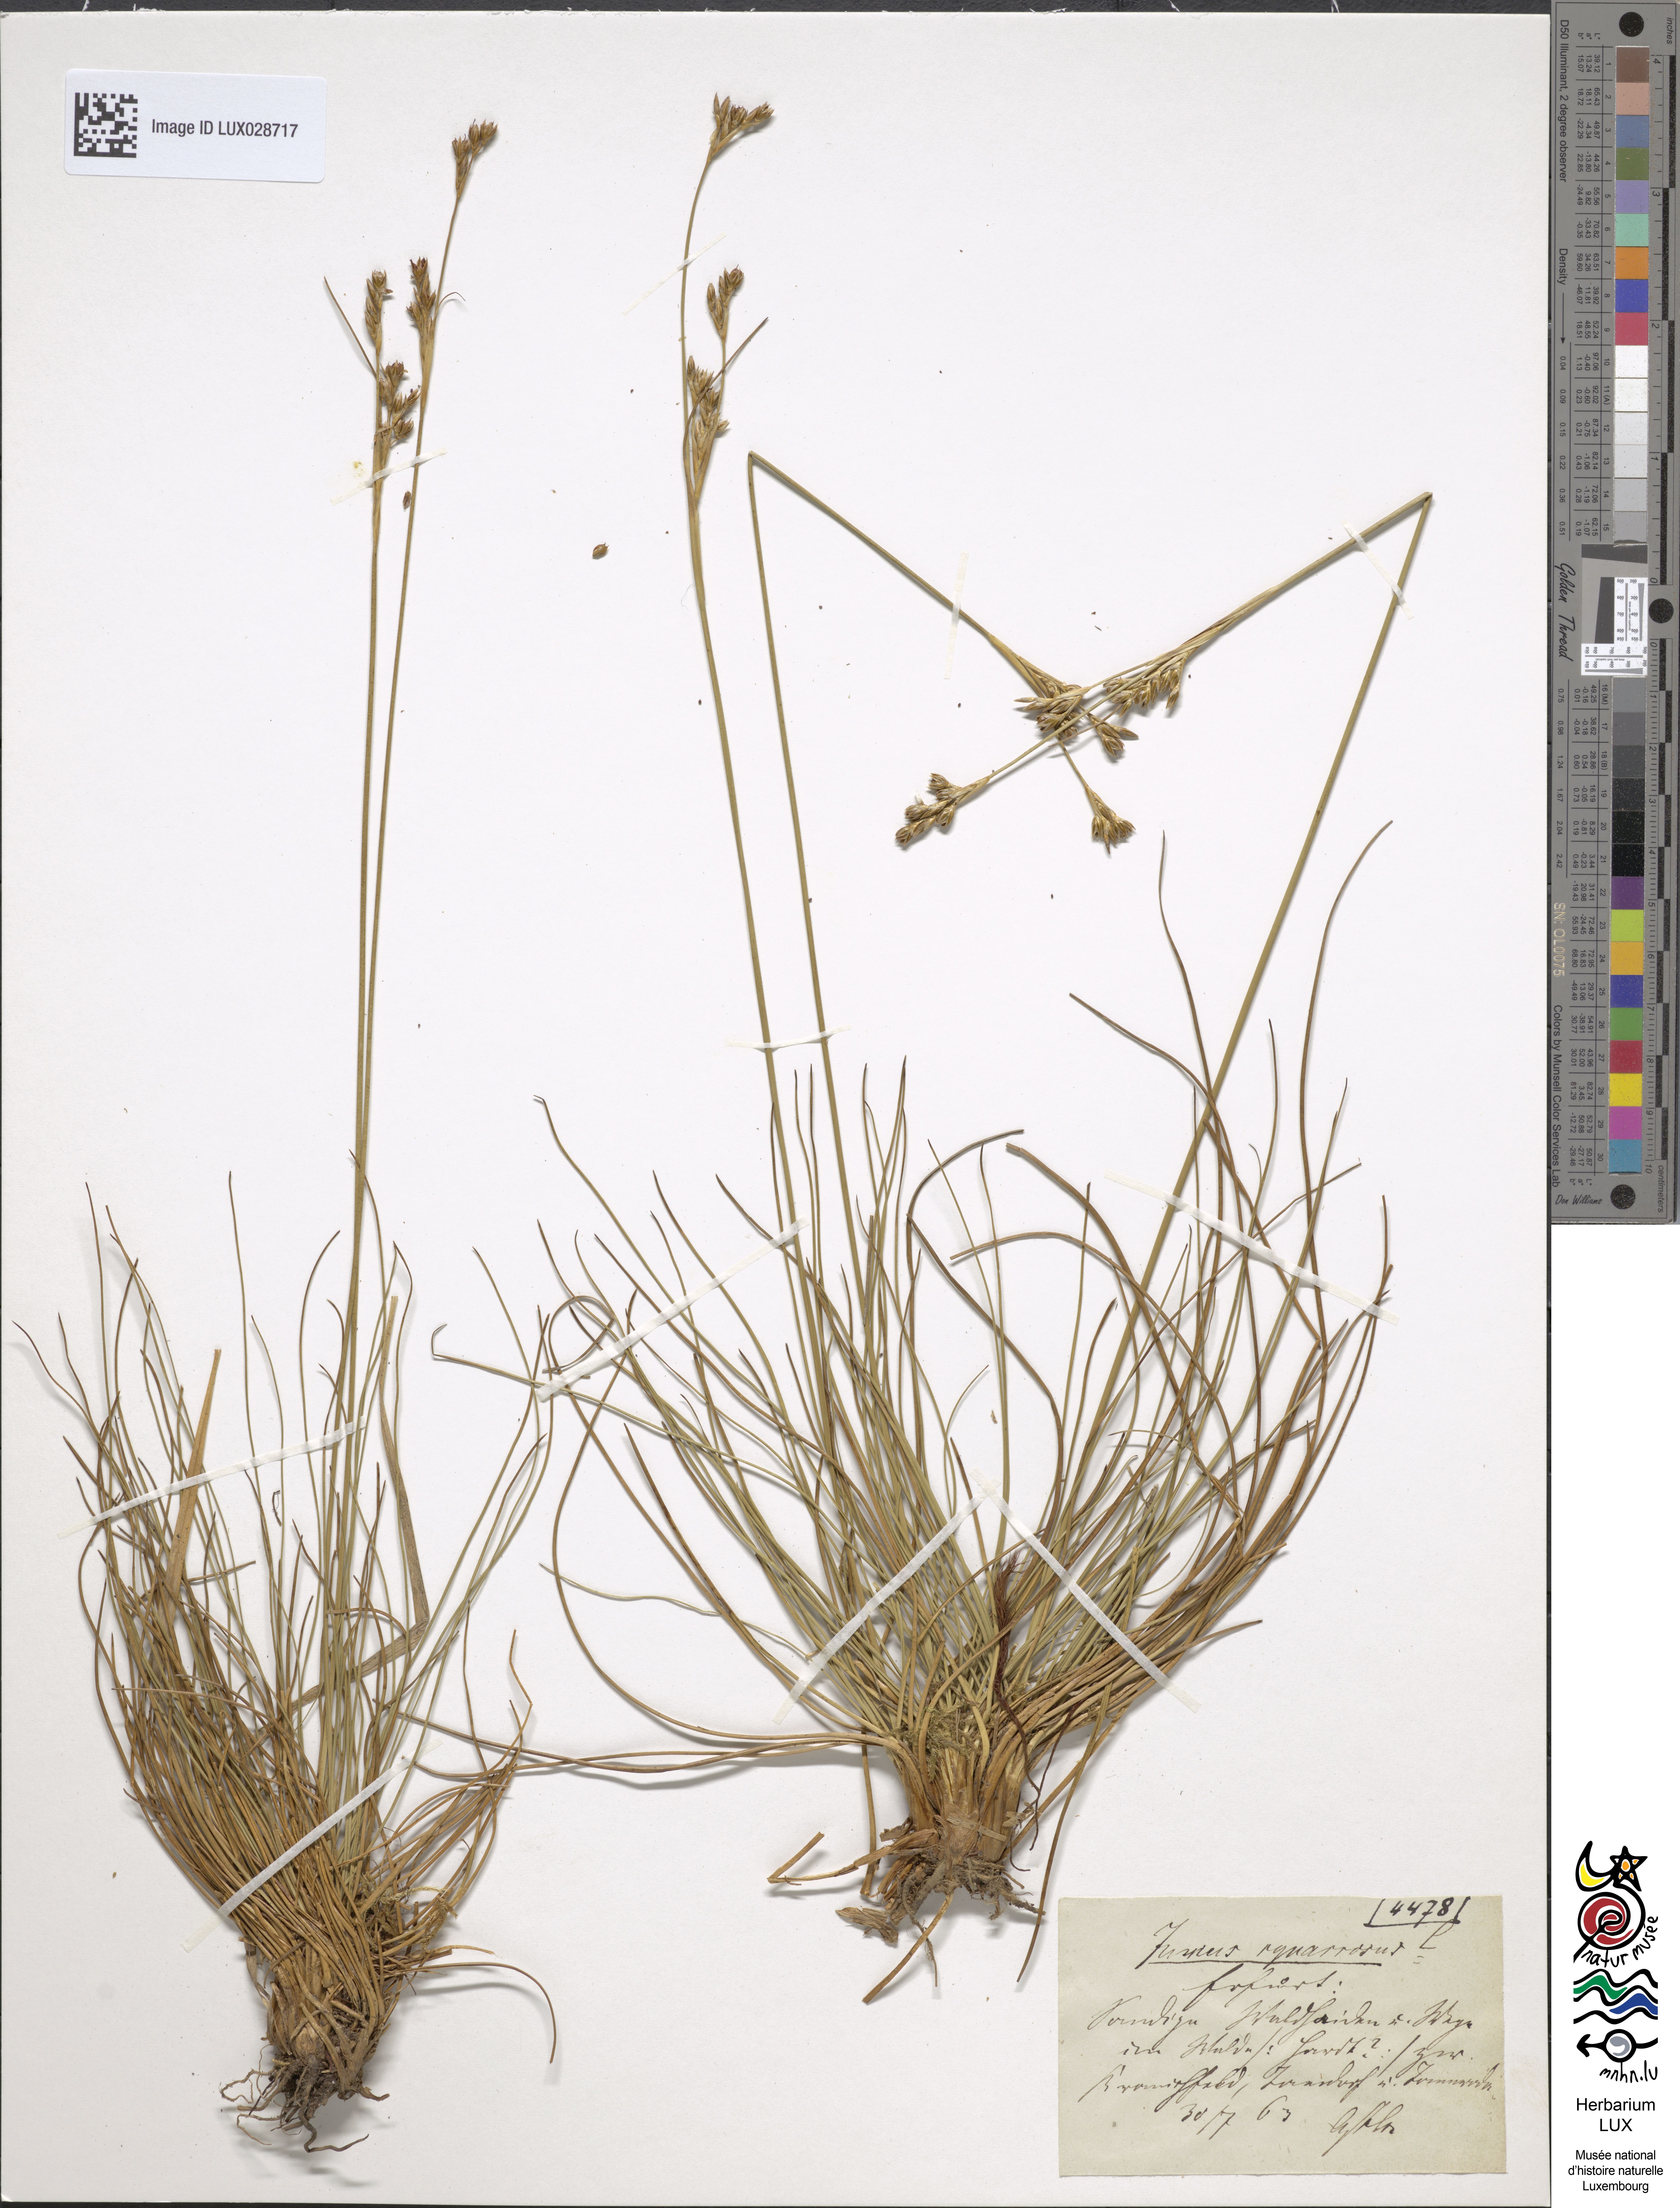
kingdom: Plantae
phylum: Tracheophyta
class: Liliopsida
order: Poales
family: Juncaceae
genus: Juncus
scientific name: Juncus squarrosus
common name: Heath rush
